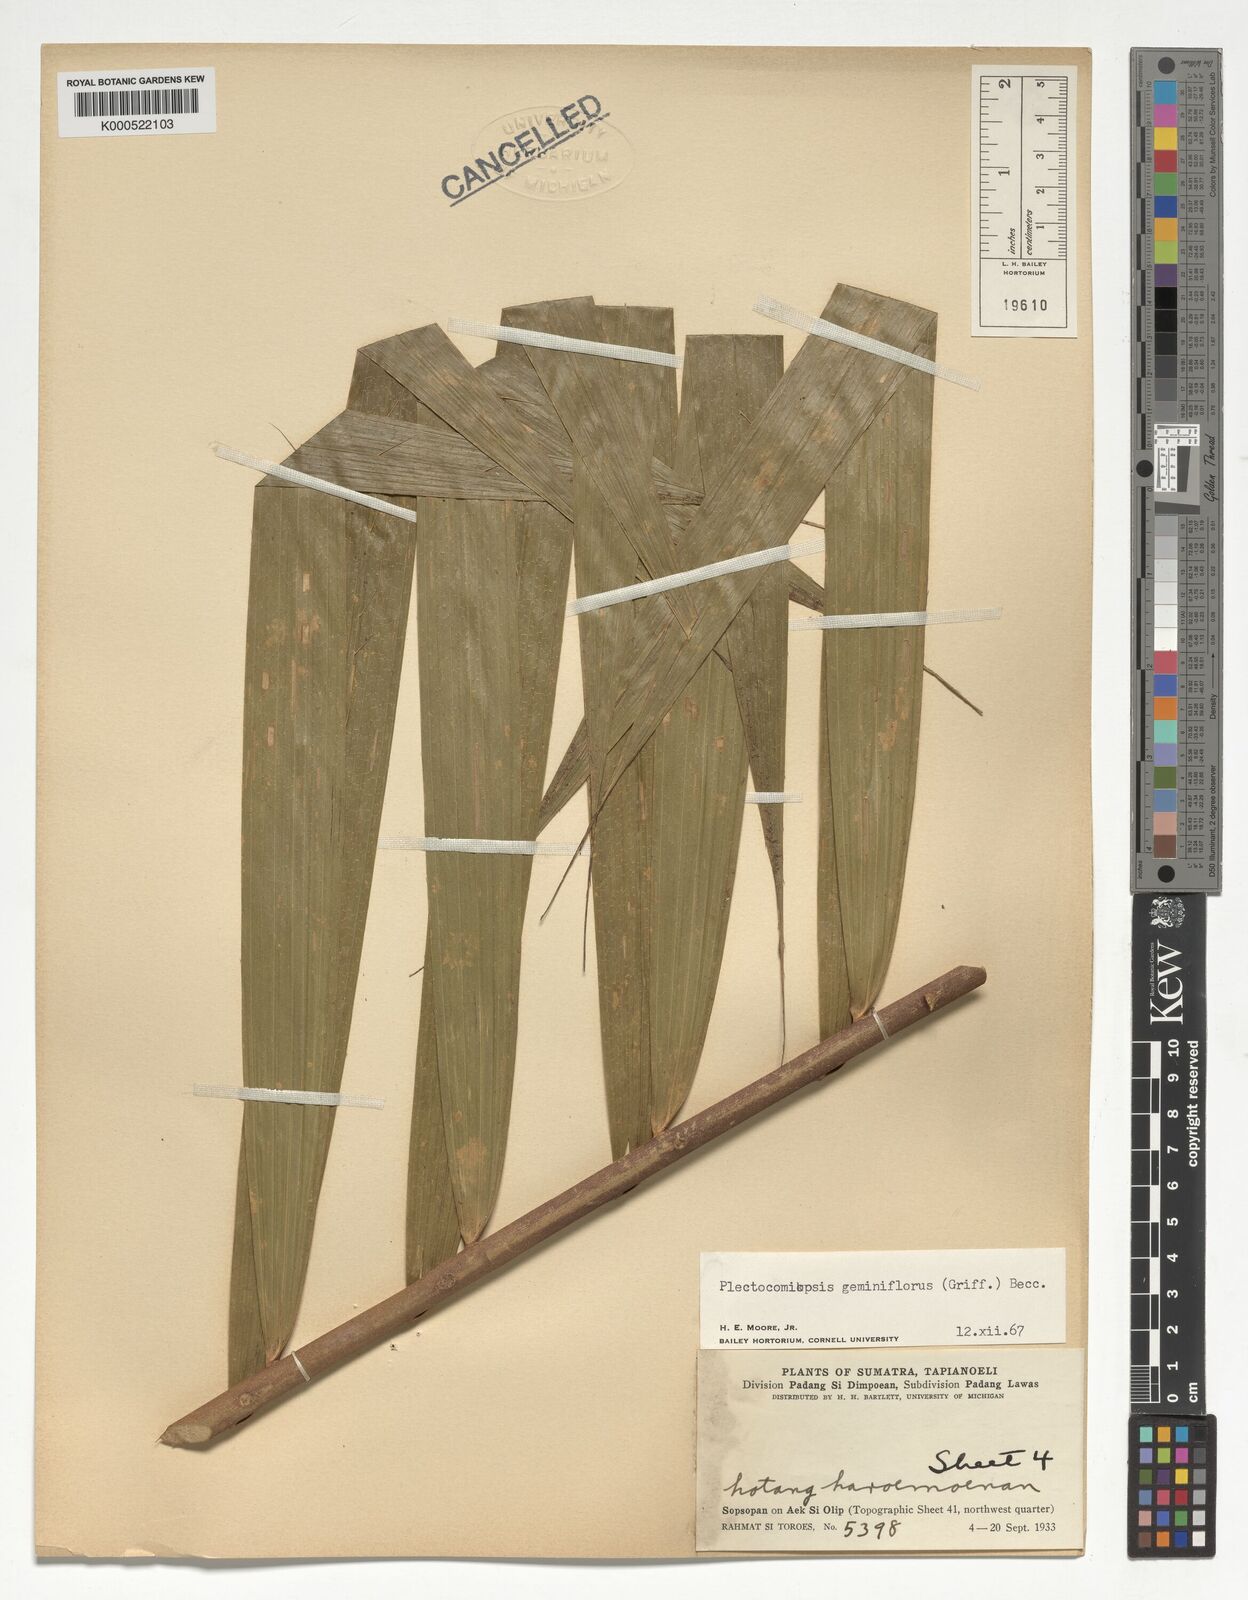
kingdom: Plantae
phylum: Tracheophyta
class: Liliopsida
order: Arecales
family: Arecaceae
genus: Plectocomiopsis
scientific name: Plectocomiopsis geminiflora
